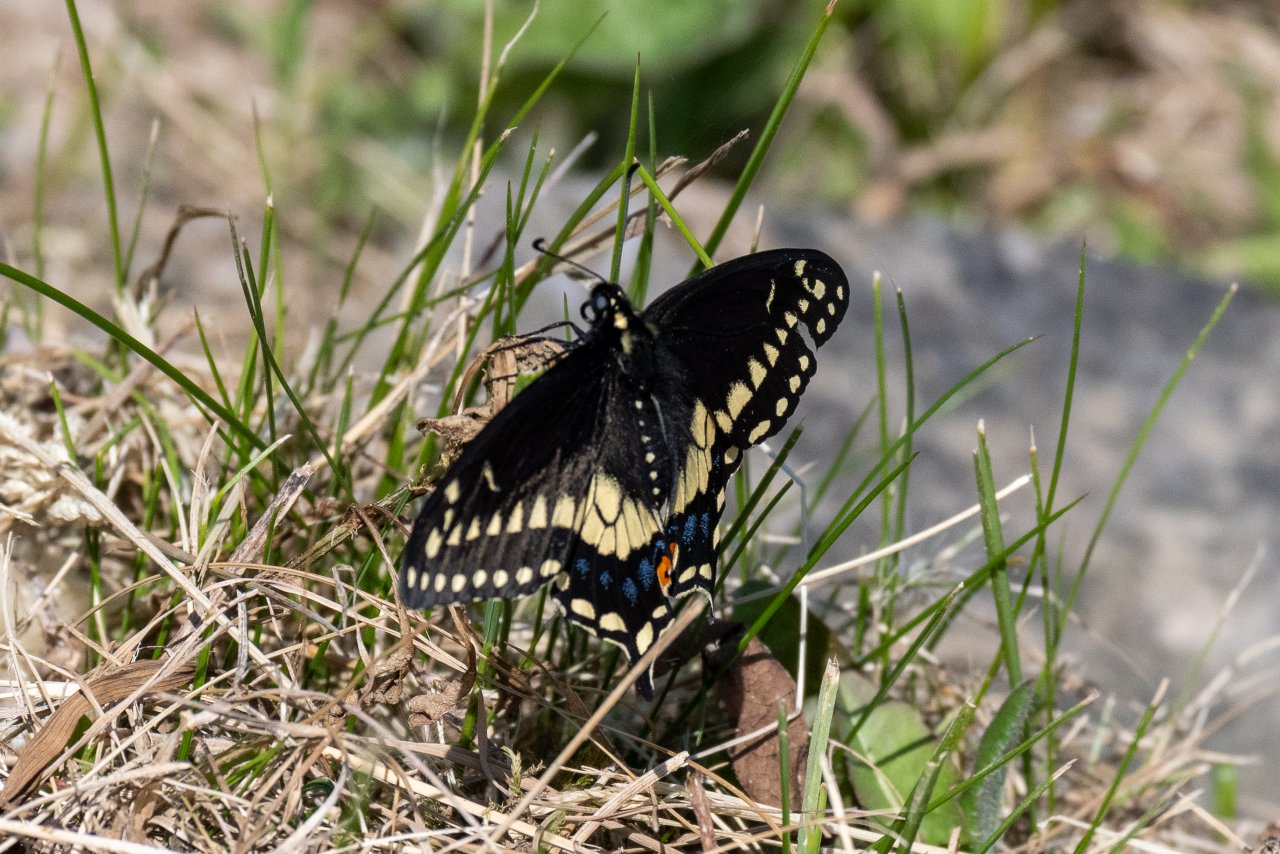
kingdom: Animalia
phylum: Arthropoda
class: Insecta
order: Lepidoptera
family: Papilionidae
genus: Papilio
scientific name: Papilio polyxenes
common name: Black Swallowtail
